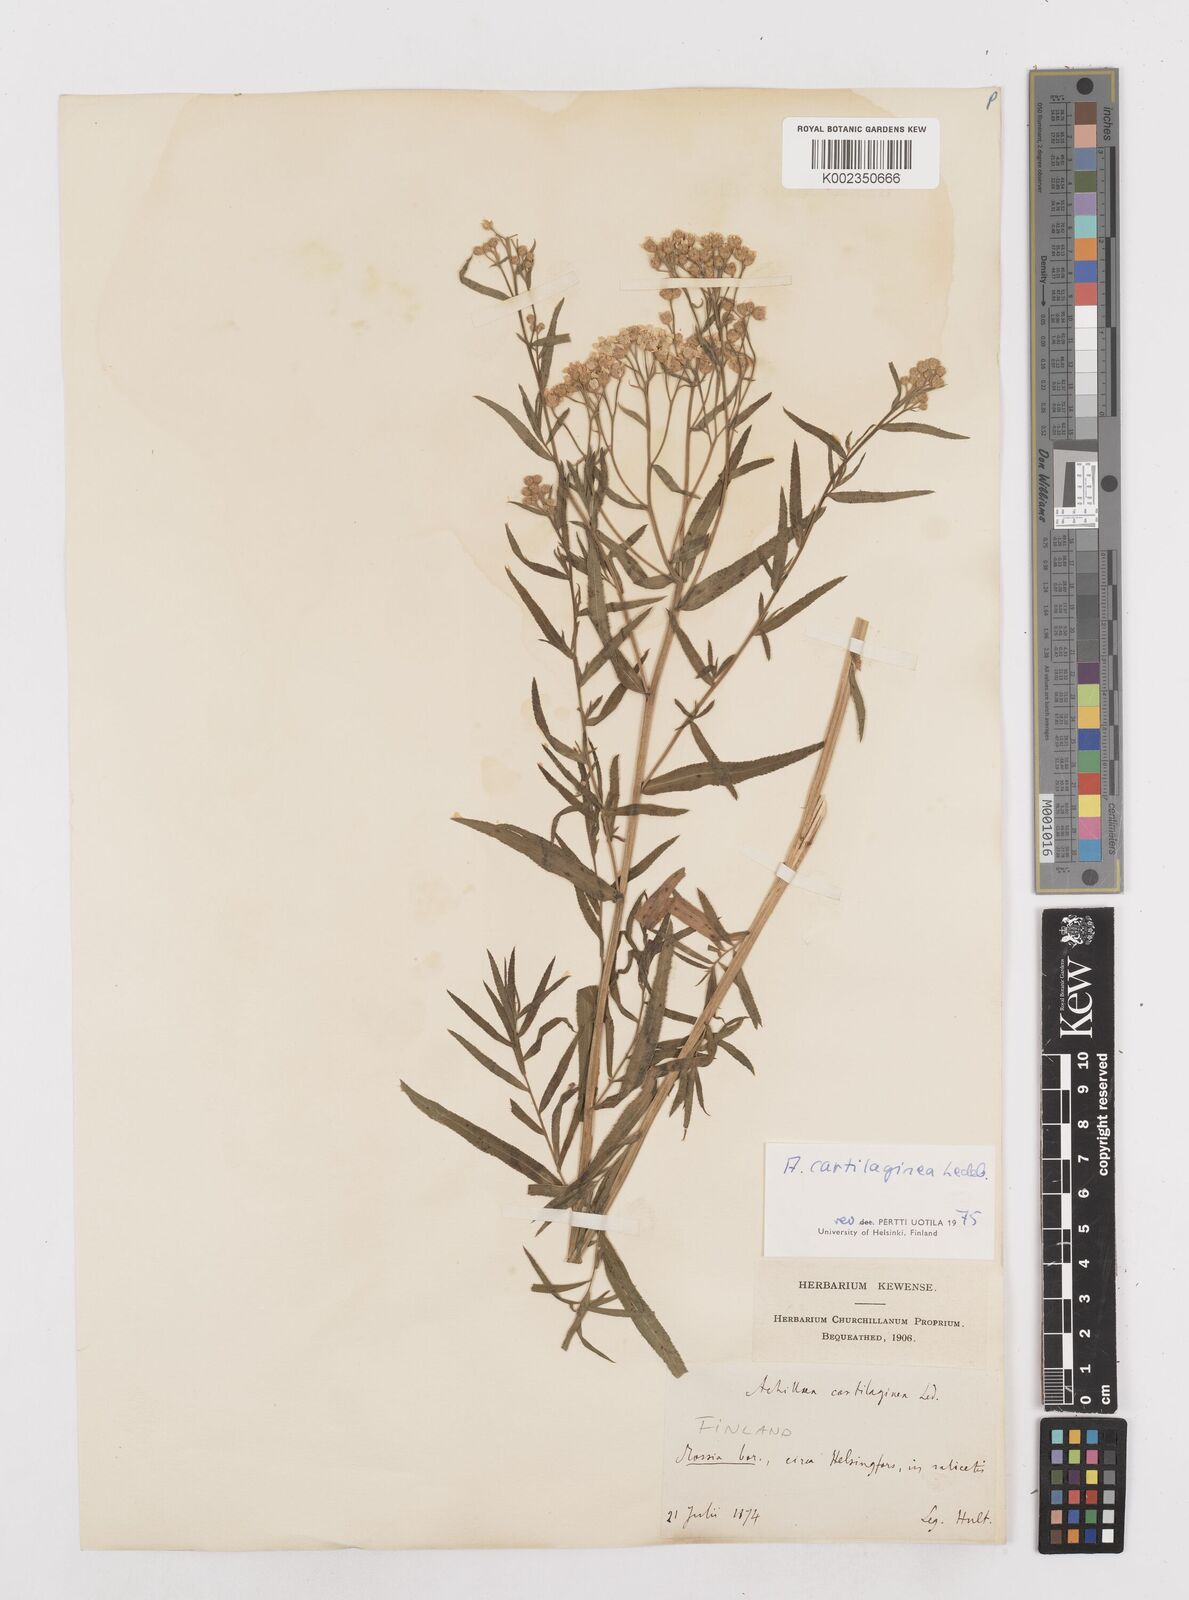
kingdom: Plantae
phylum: Tracheophyta
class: Magnoliopsida
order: Asterales
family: Asteraceae
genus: Achillea
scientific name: Achillea salicifolia
